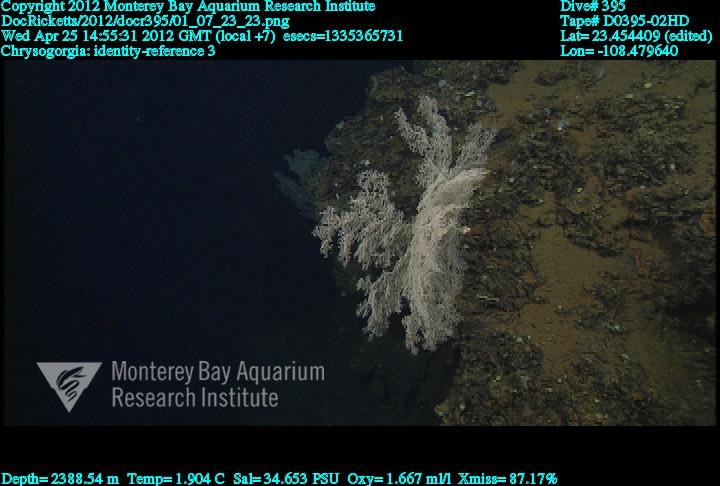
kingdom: Animalia
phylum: Cnidaria
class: Anthozoa
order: Scleralcyonacea
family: Chrysogorgiidae
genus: Chrysogorgia
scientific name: Chrysogorgia
